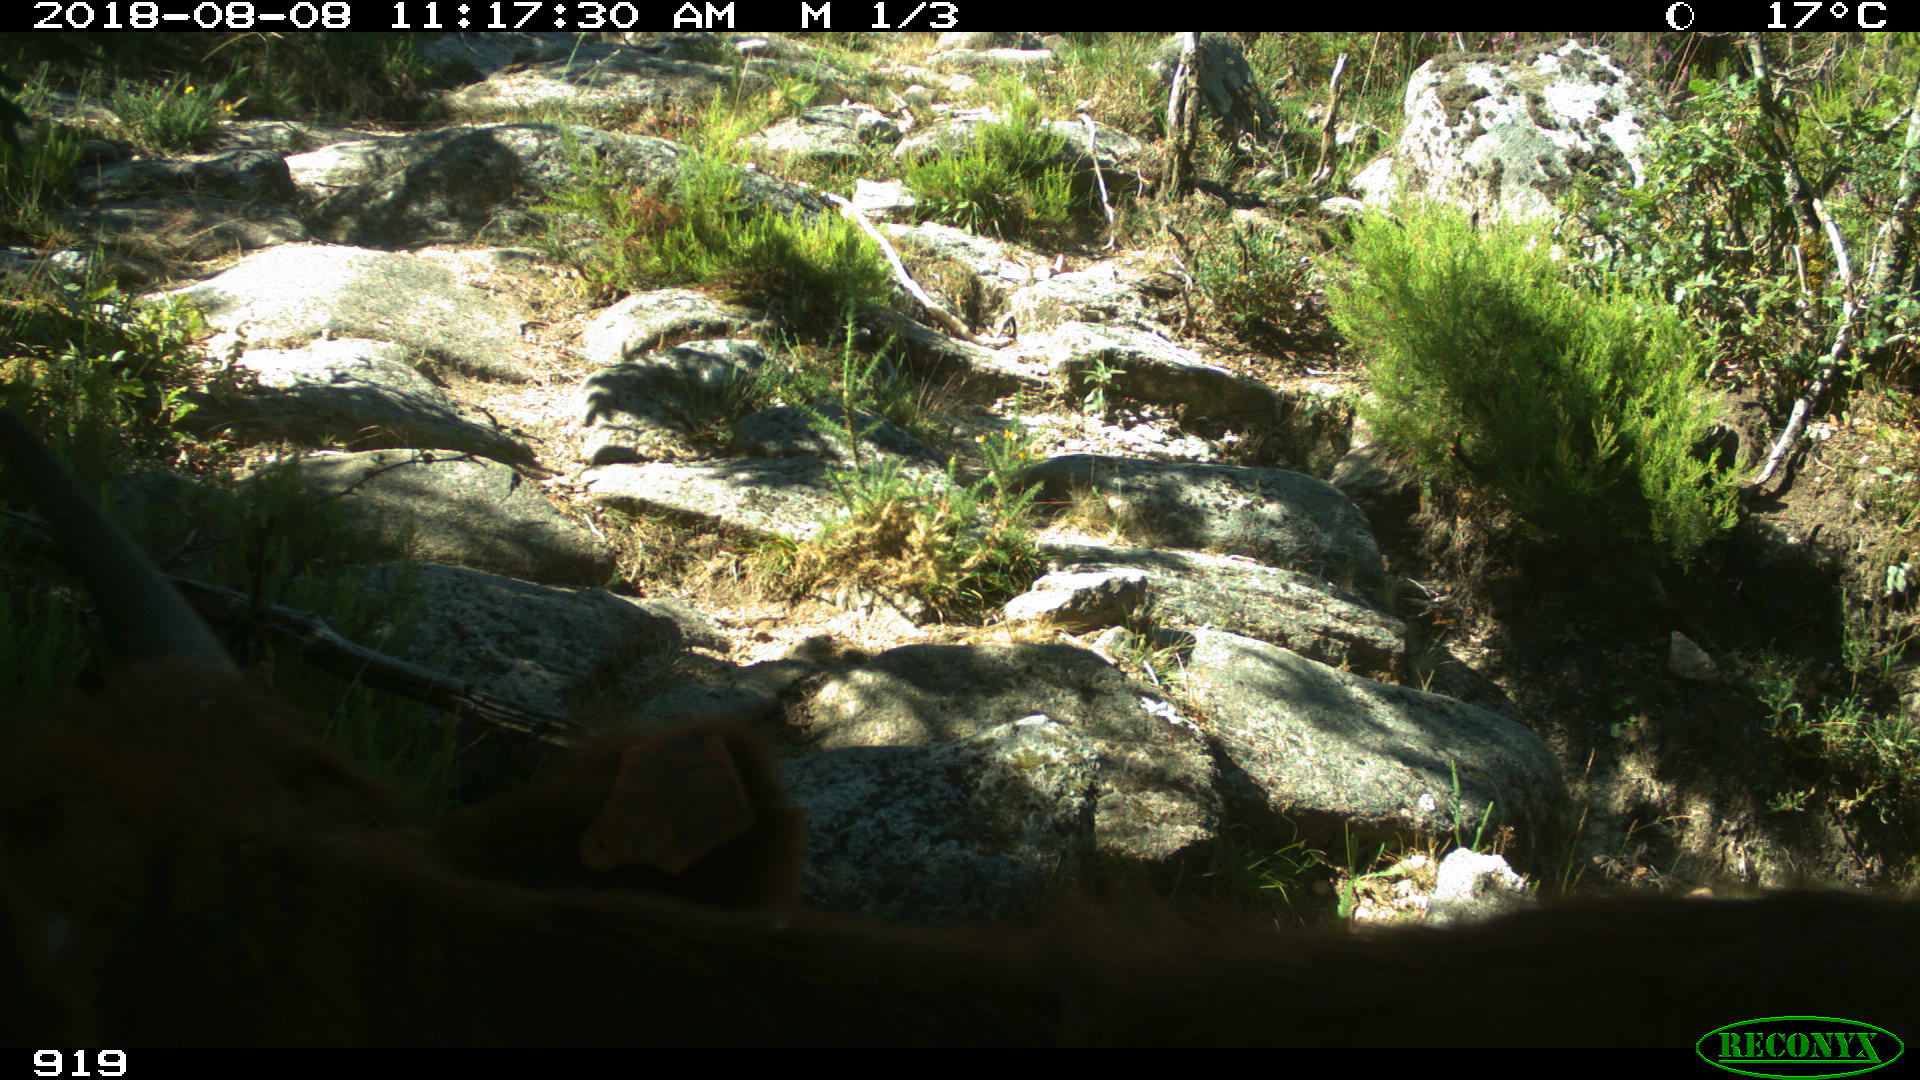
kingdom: Animalia
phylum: Chordata
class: Mammalia
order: Artiodactyla
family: Bovidae
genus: Bos
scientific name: Bos taurus
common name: Domesticated cattle
